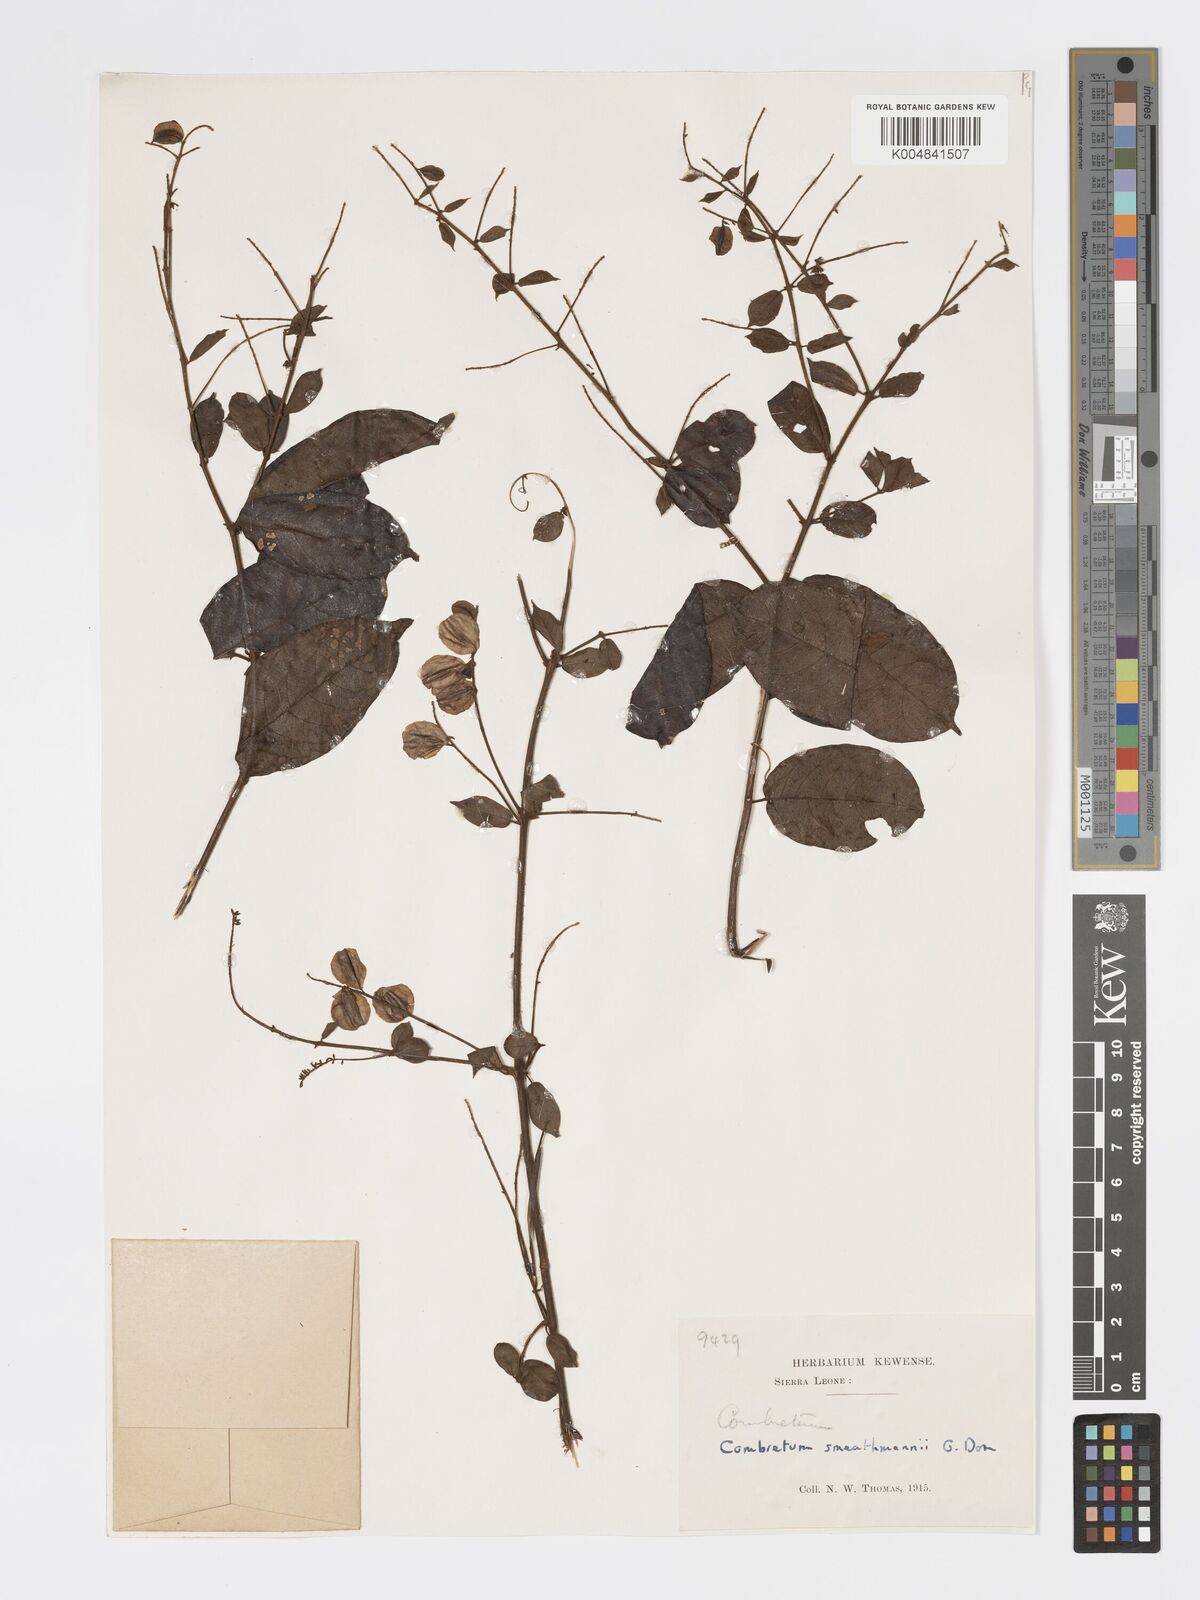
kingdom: Plantae
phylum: Tracheophyta
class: Magnoliopsida
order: Myrtales
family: Combretaceae
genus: Combretum
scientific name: Combretum mucronatum
